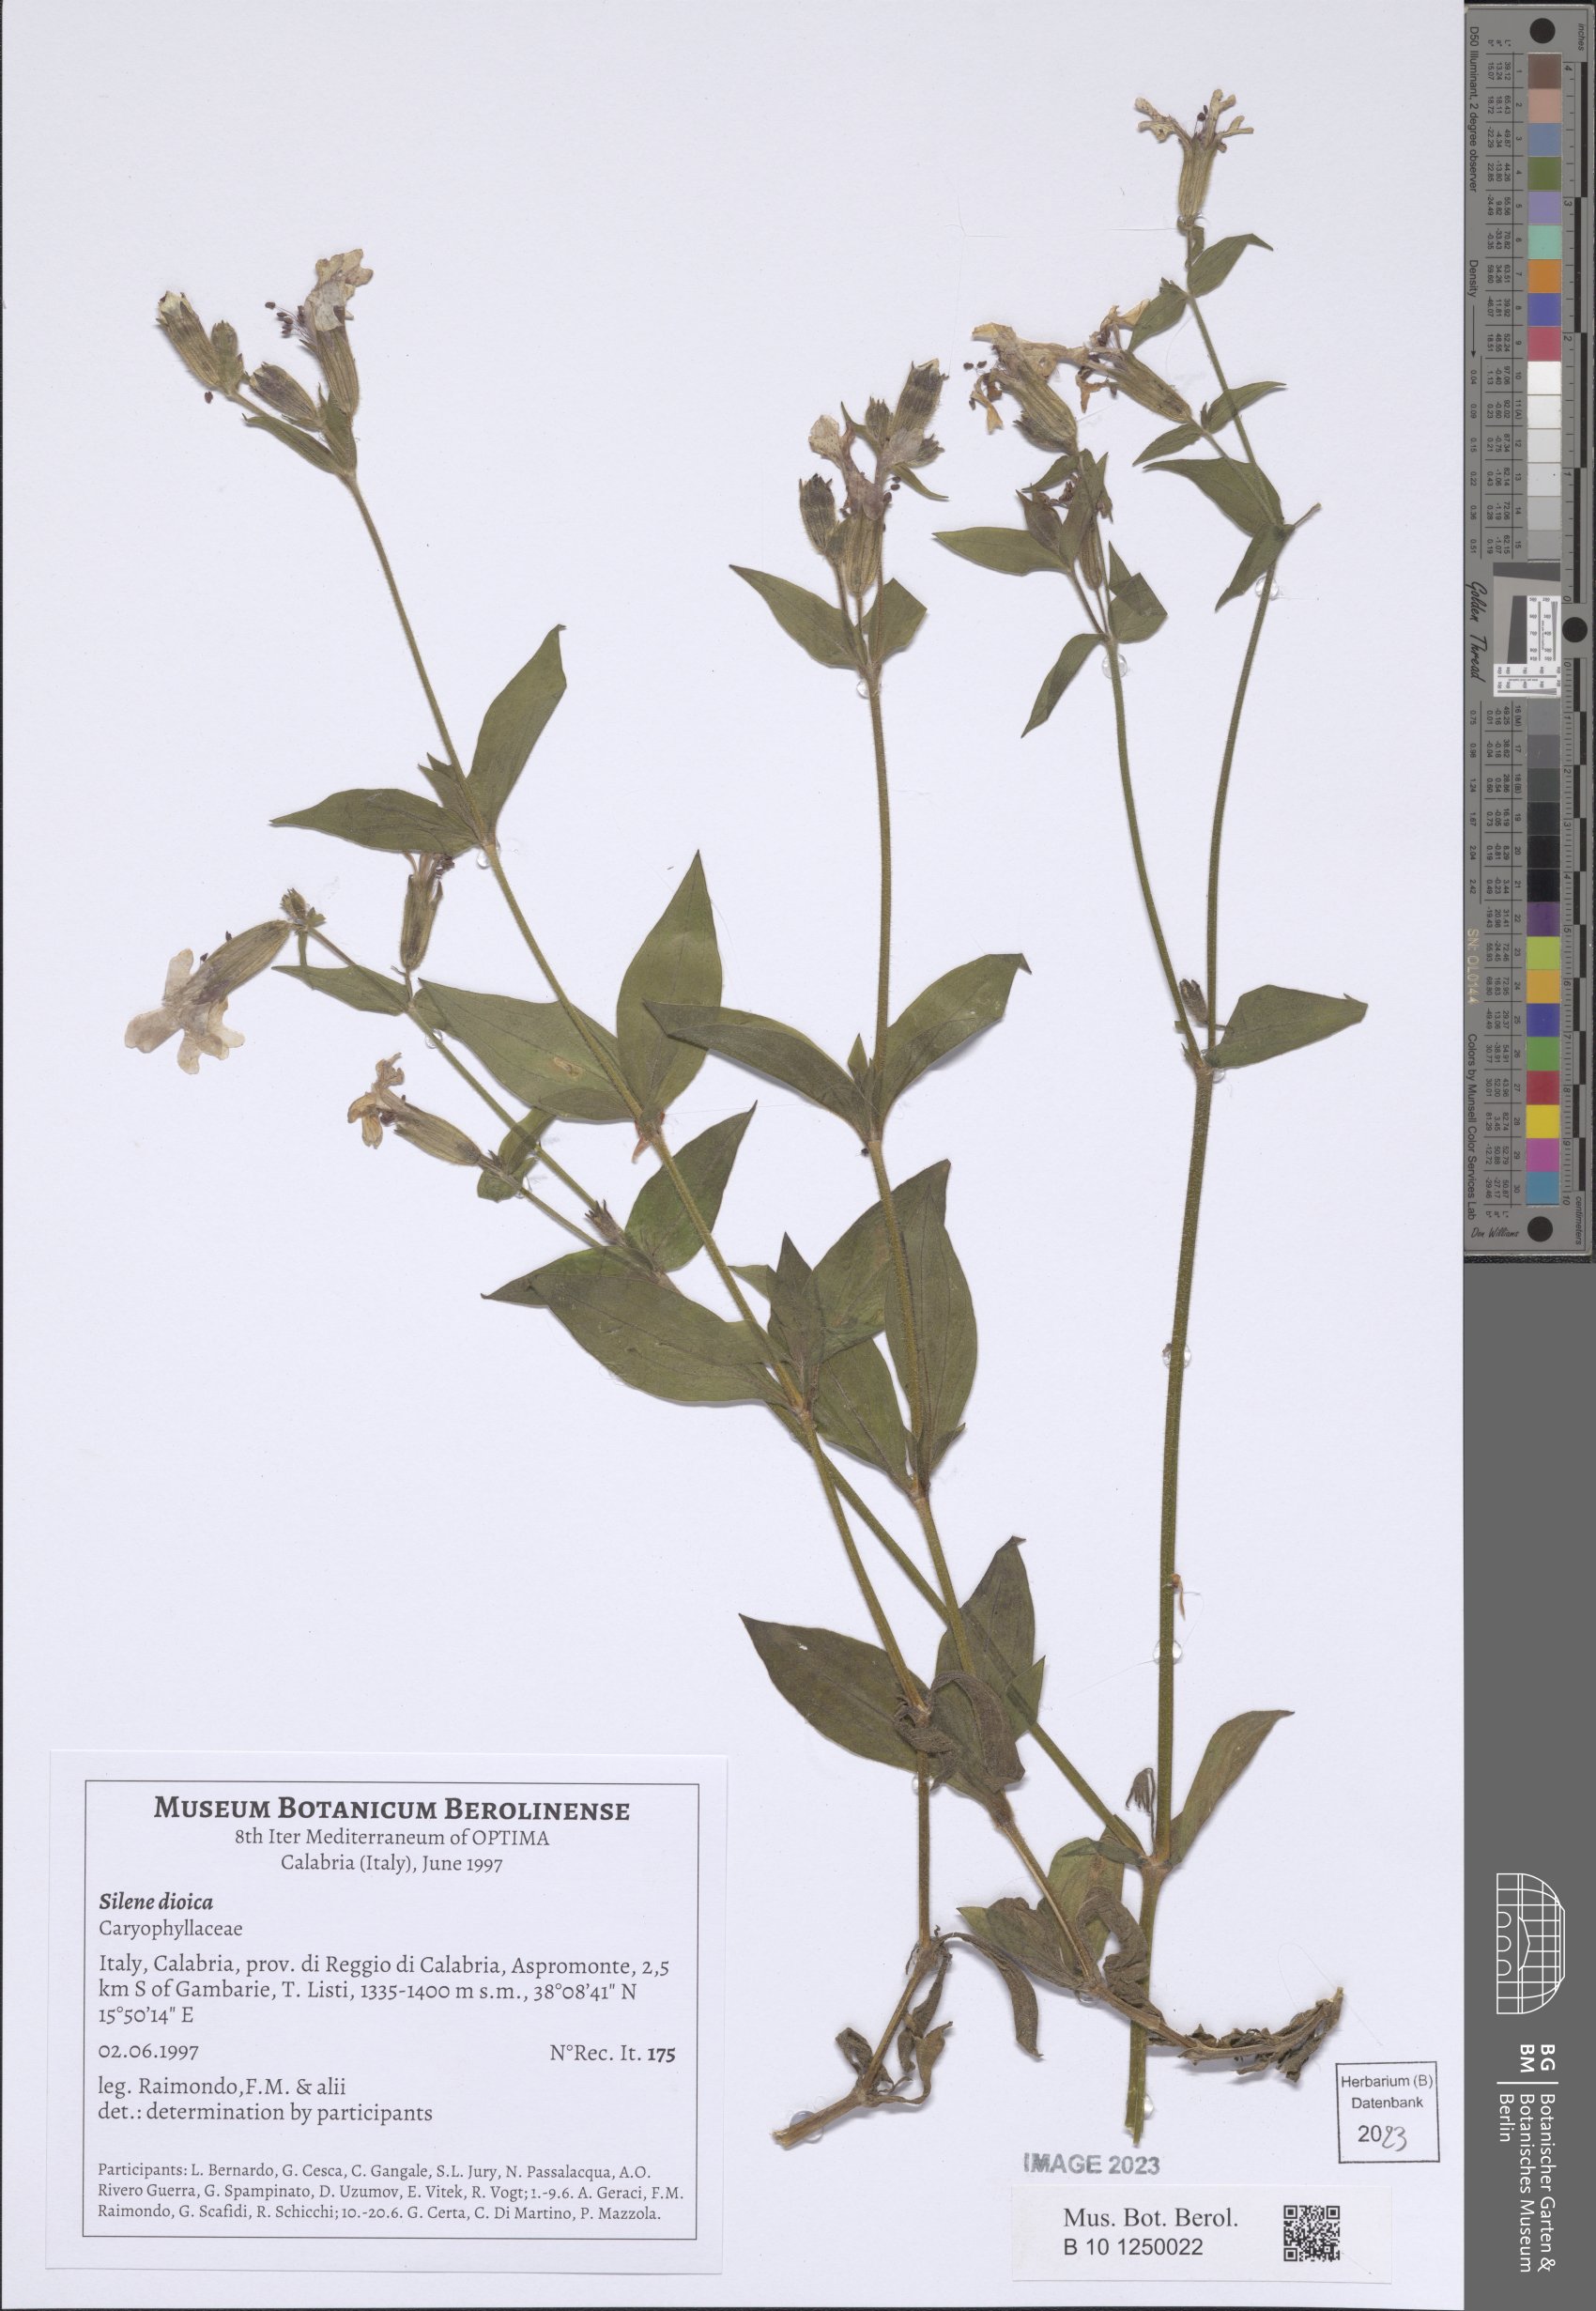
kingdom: Plantae
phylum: Tracheophyta
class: Magnoliopsida
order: Caryophyllales
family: Caryophyllaceae
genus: Silene
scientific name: Silene dioica
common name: Red campion
